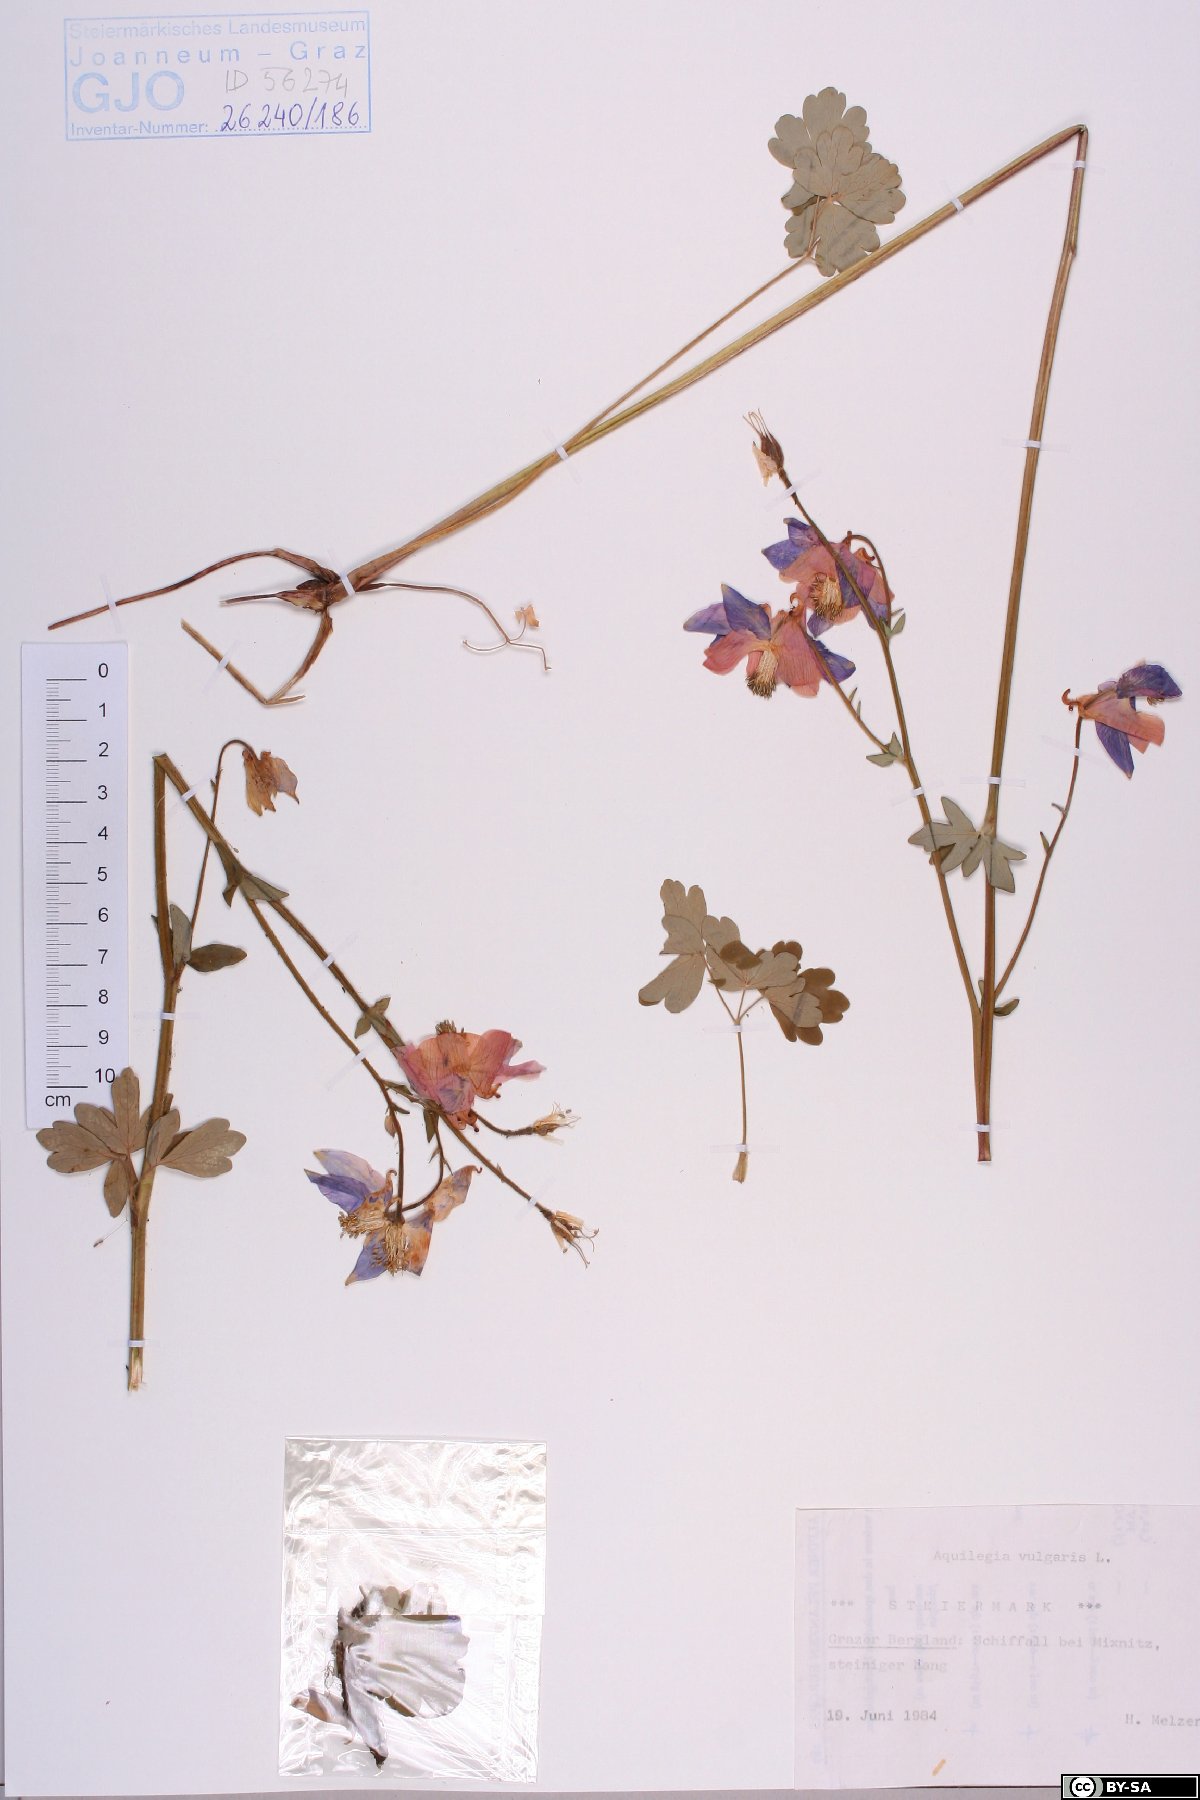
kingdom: Plantae
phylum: Tracheophyta
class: Magnoliopsida
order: Ranunculales
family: Ranunculaceae
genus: Aquilegia
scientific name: Aquilegia vulgaris
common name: Columbine
